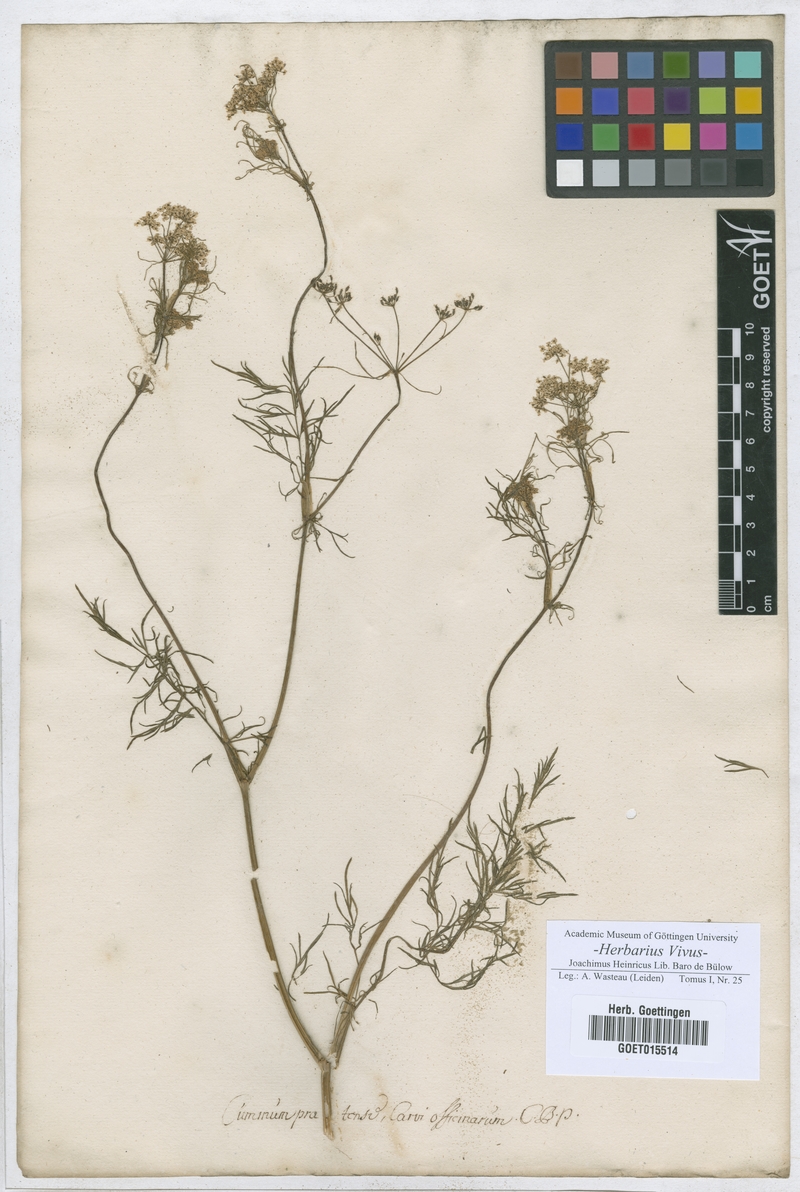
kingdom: Plantae
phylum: Tracheophyta
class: Magnoliopsida
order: Apiales
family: Apiaceae
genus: Carum
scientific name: Carum carvi
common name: Caraway
